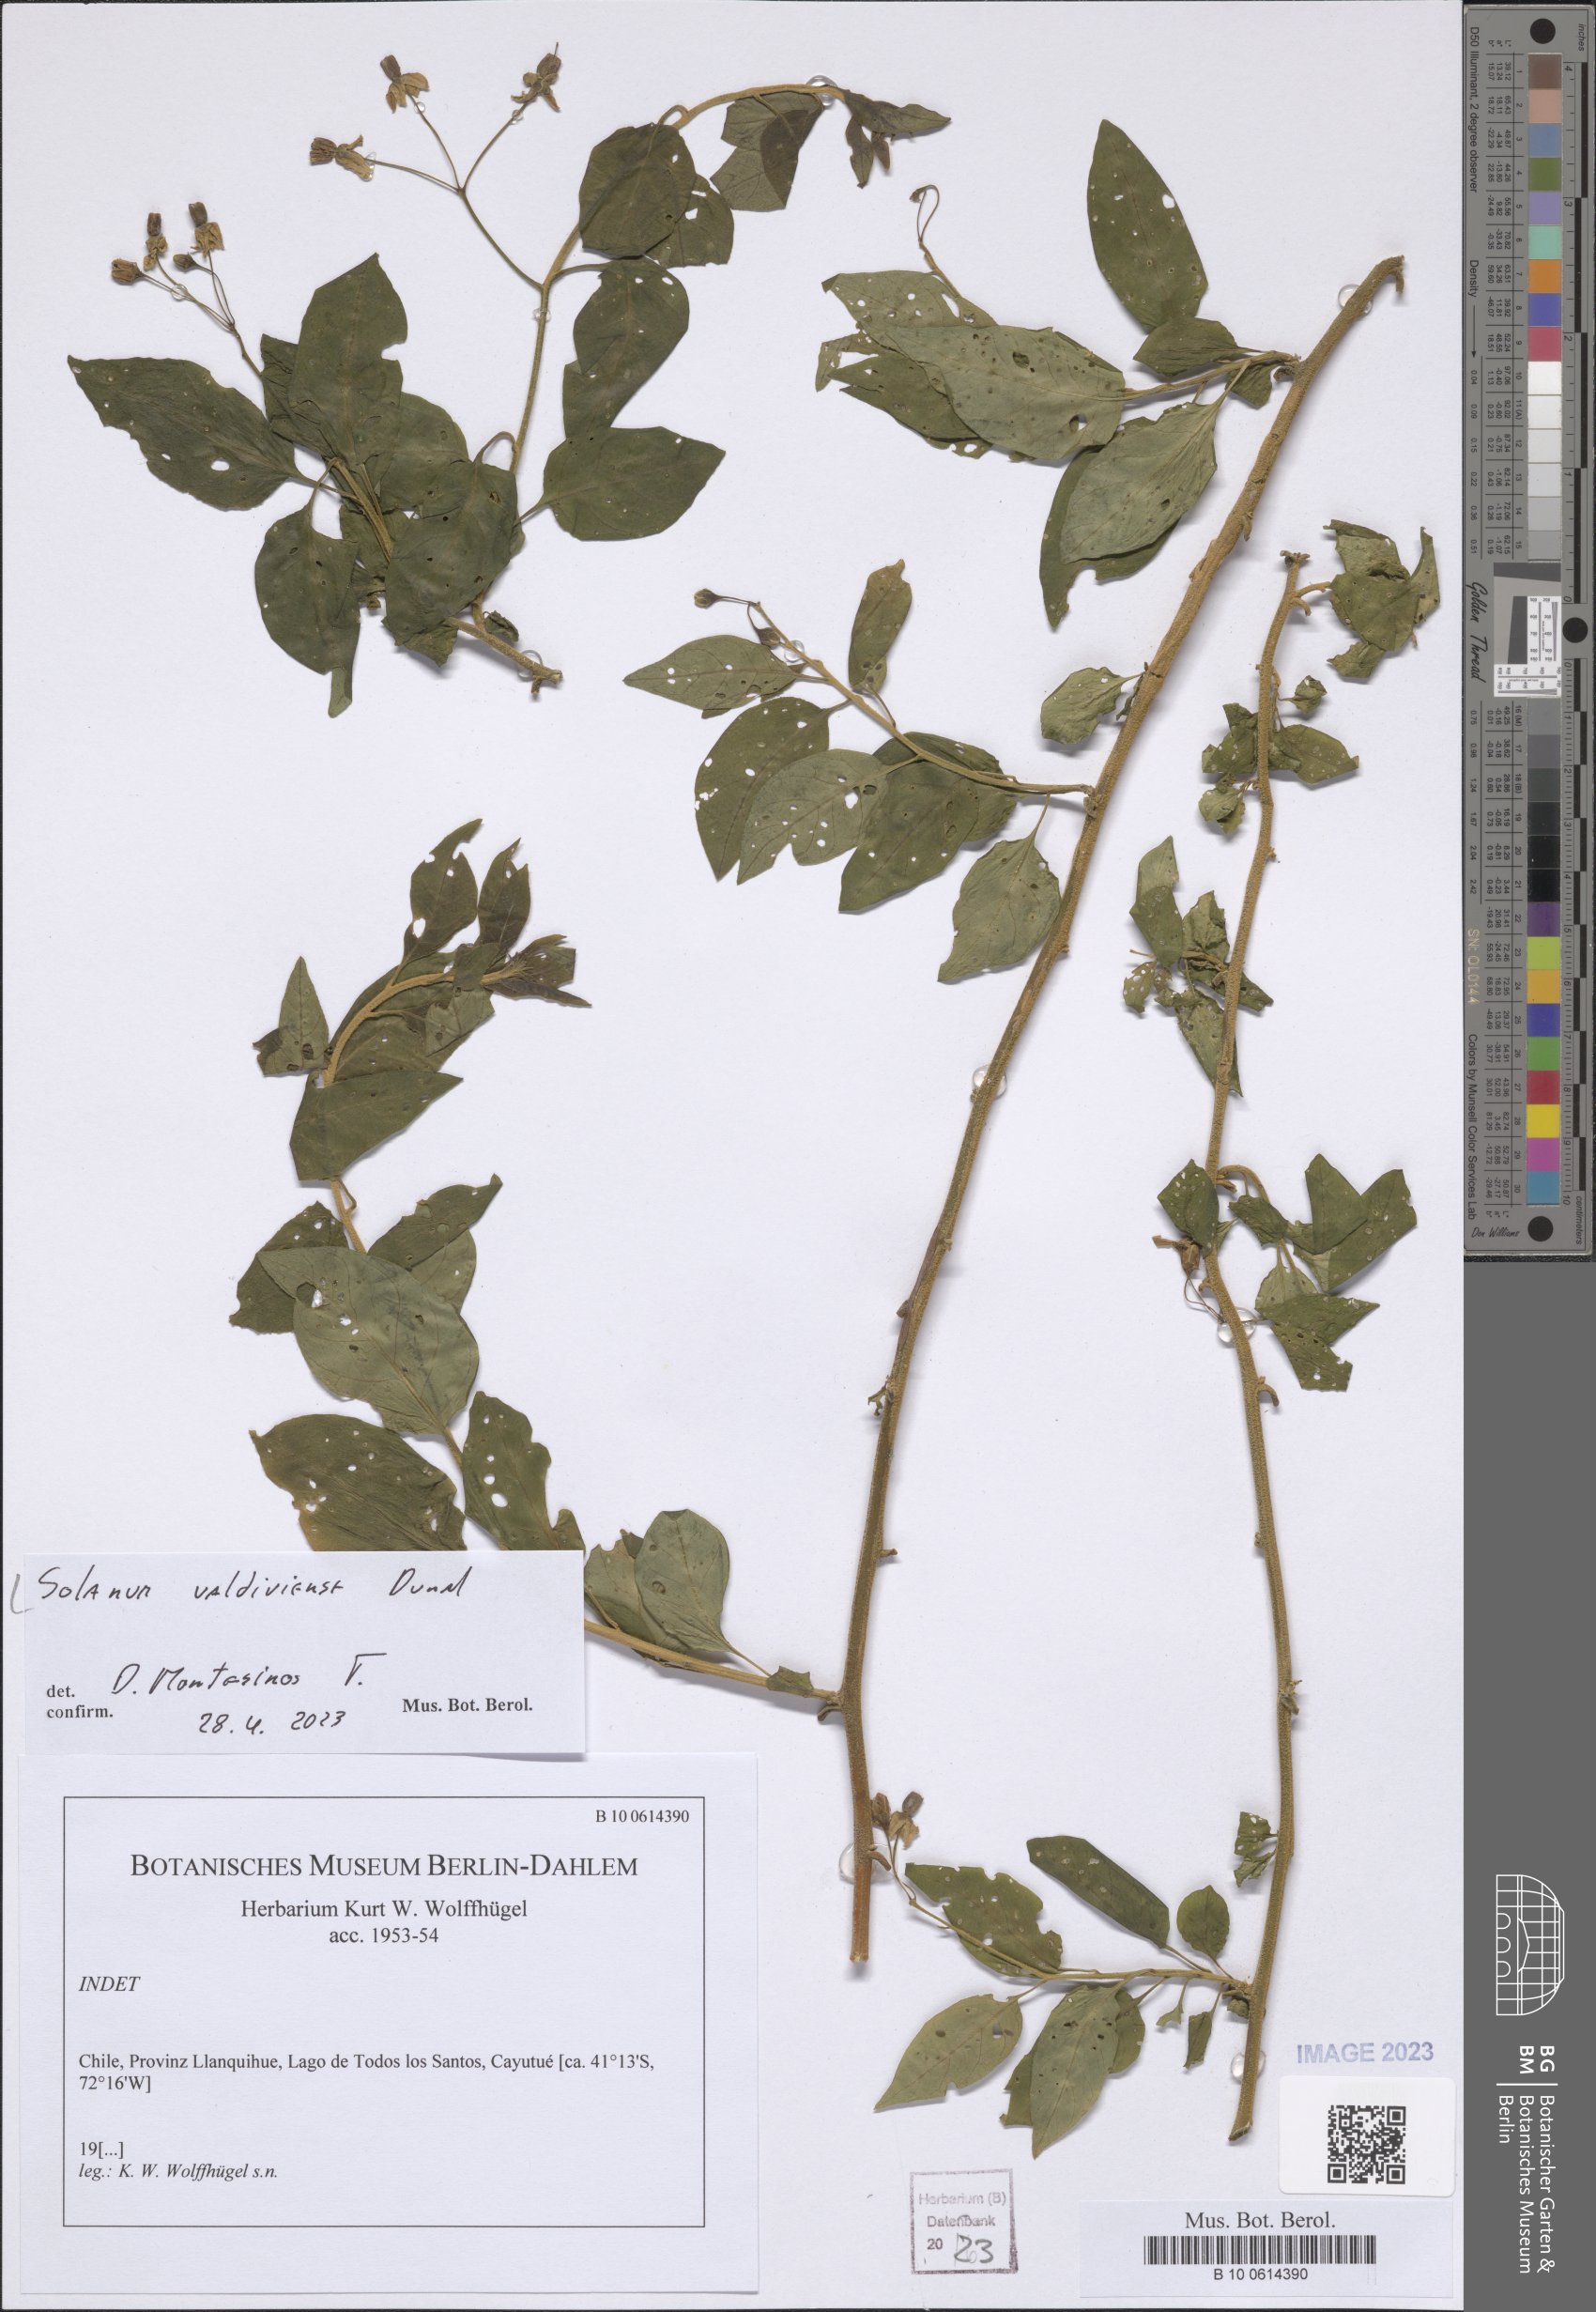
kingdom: Plantae
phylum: Tracheophyta
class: Magnoliopsida
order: Solanales
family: Solanaceae
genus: Solanum
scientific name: Solanum valdiviense
